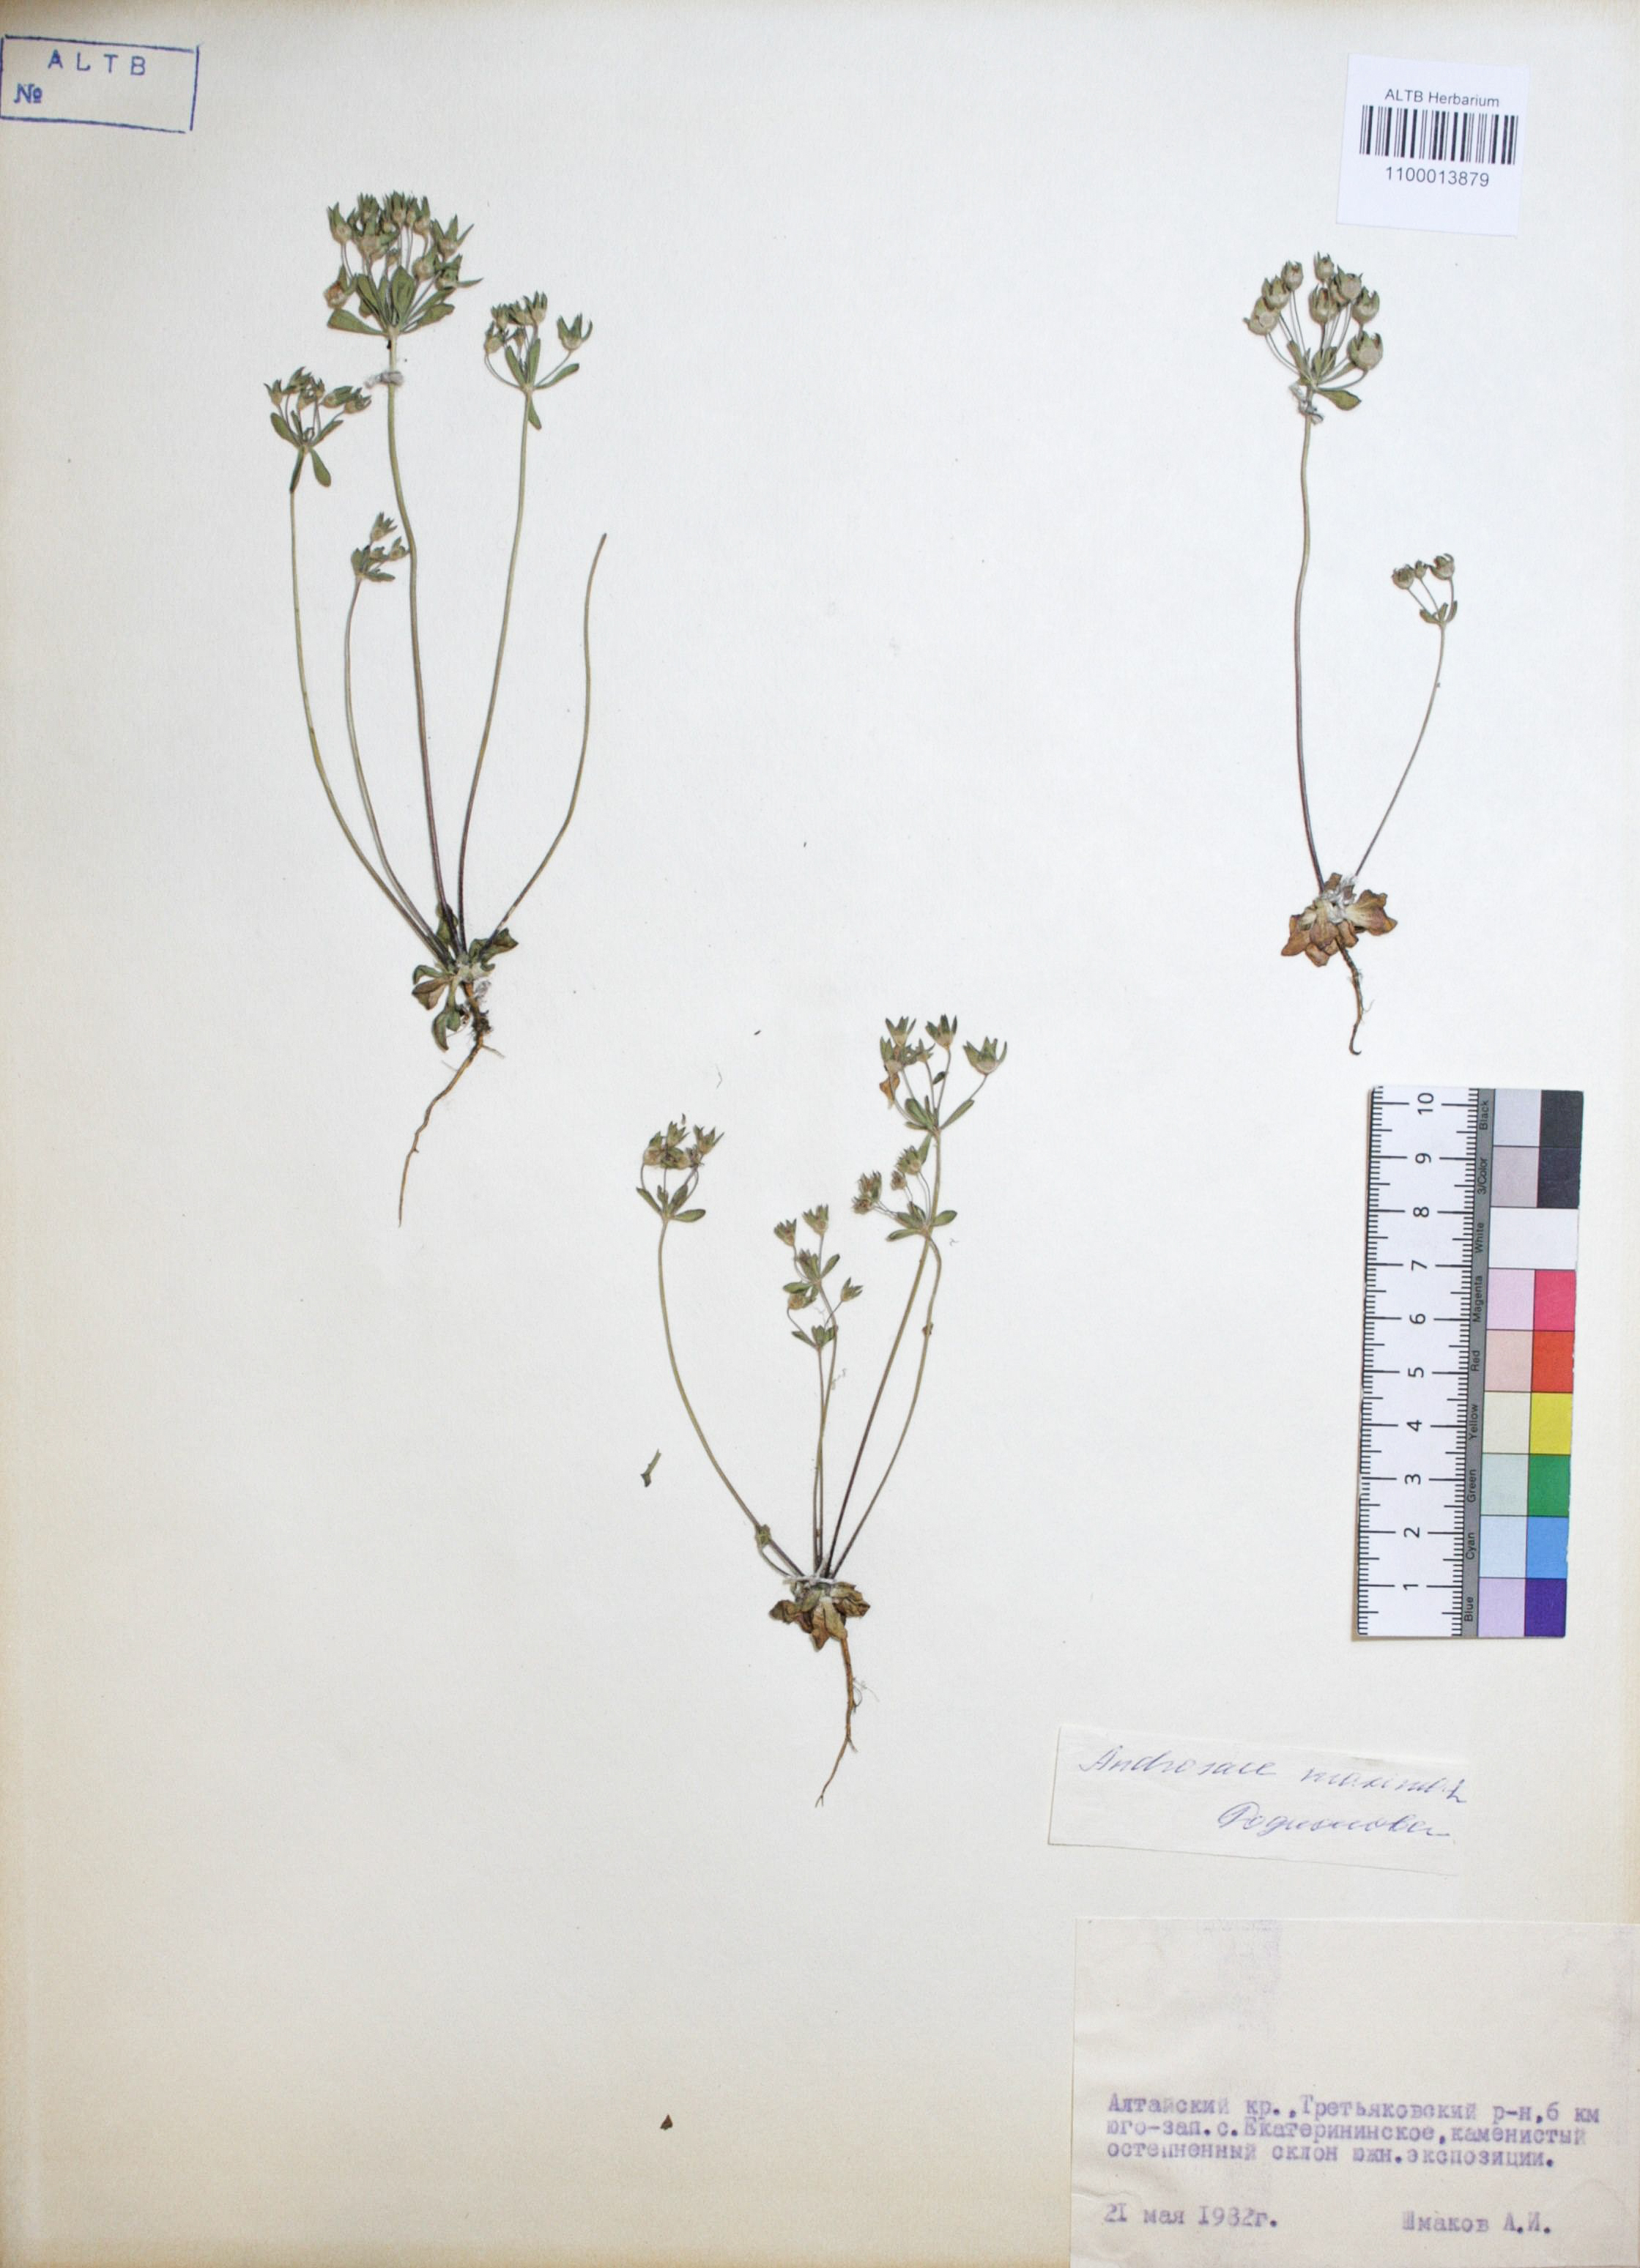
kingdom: Plantae
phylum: Tracheophyta
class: Magnoliopsida
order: Ericales
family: Primulaceae
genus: Androsace
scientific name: Androsace maxima
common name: Annual androsace
